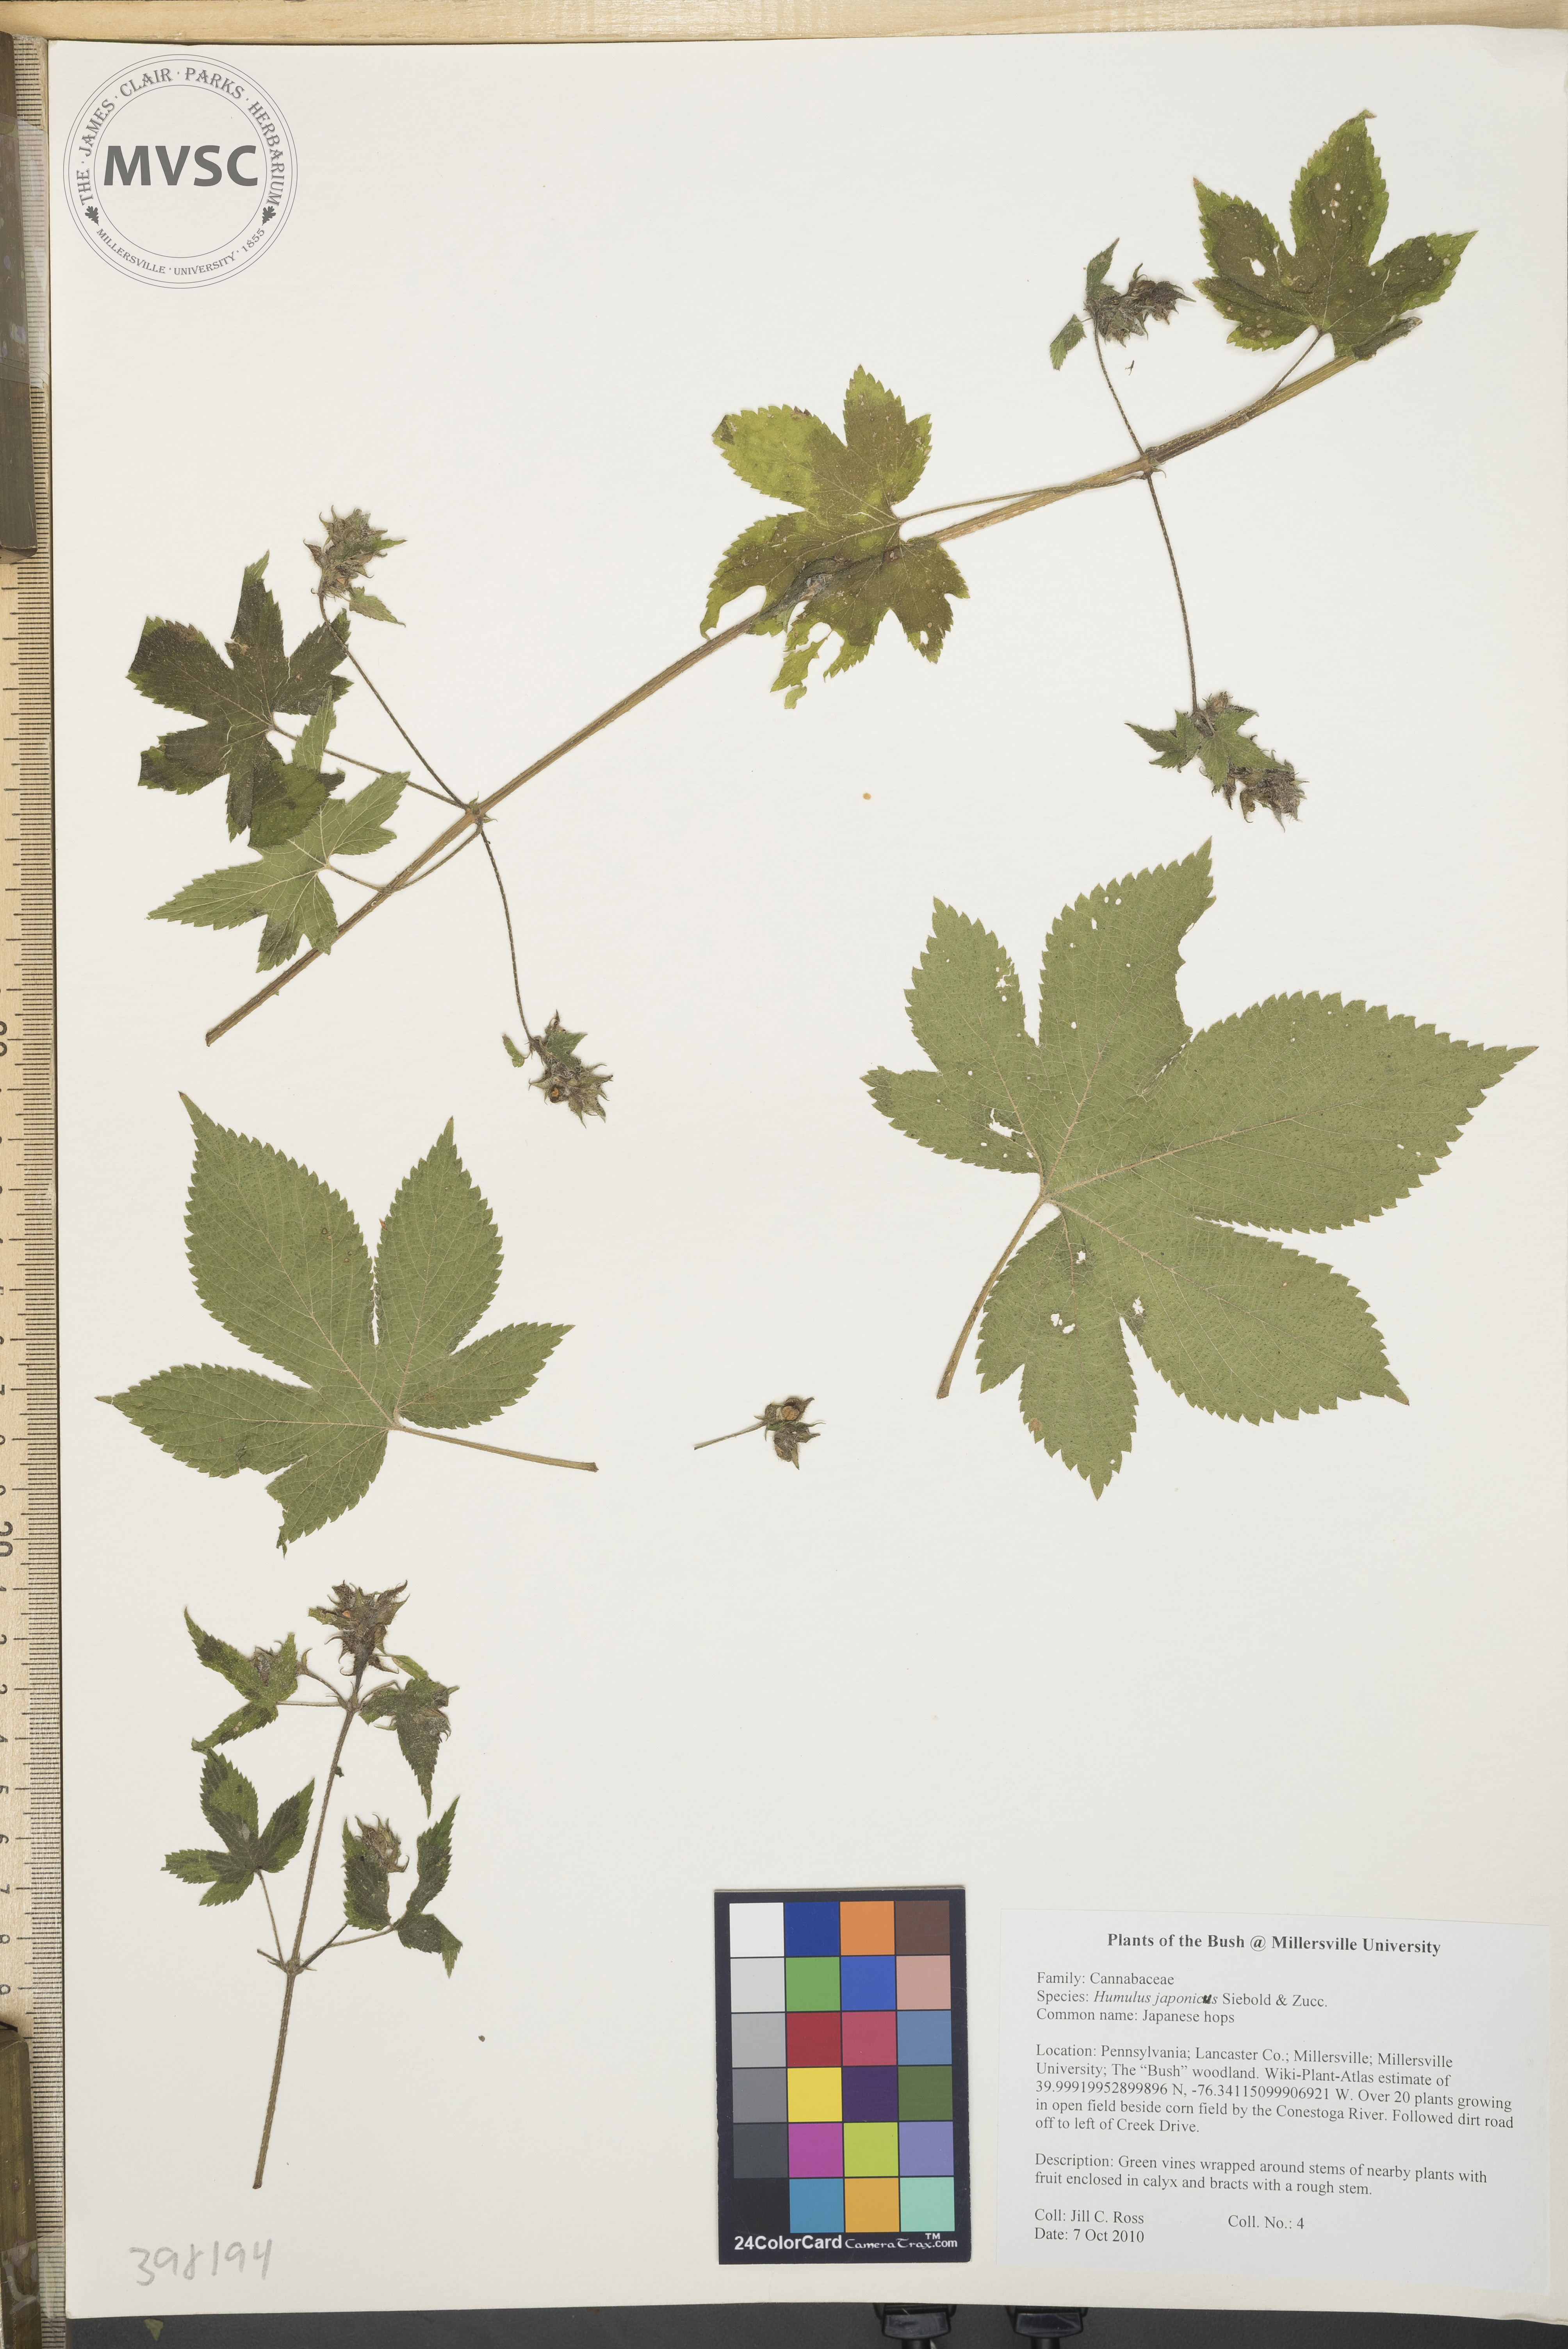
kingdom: Plantae
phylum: Tracheophyta
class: Magnoliopsida
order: Rosales
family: Cannabaceae
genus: Humulus
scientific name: Humulus scandens
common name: Japanese hops
